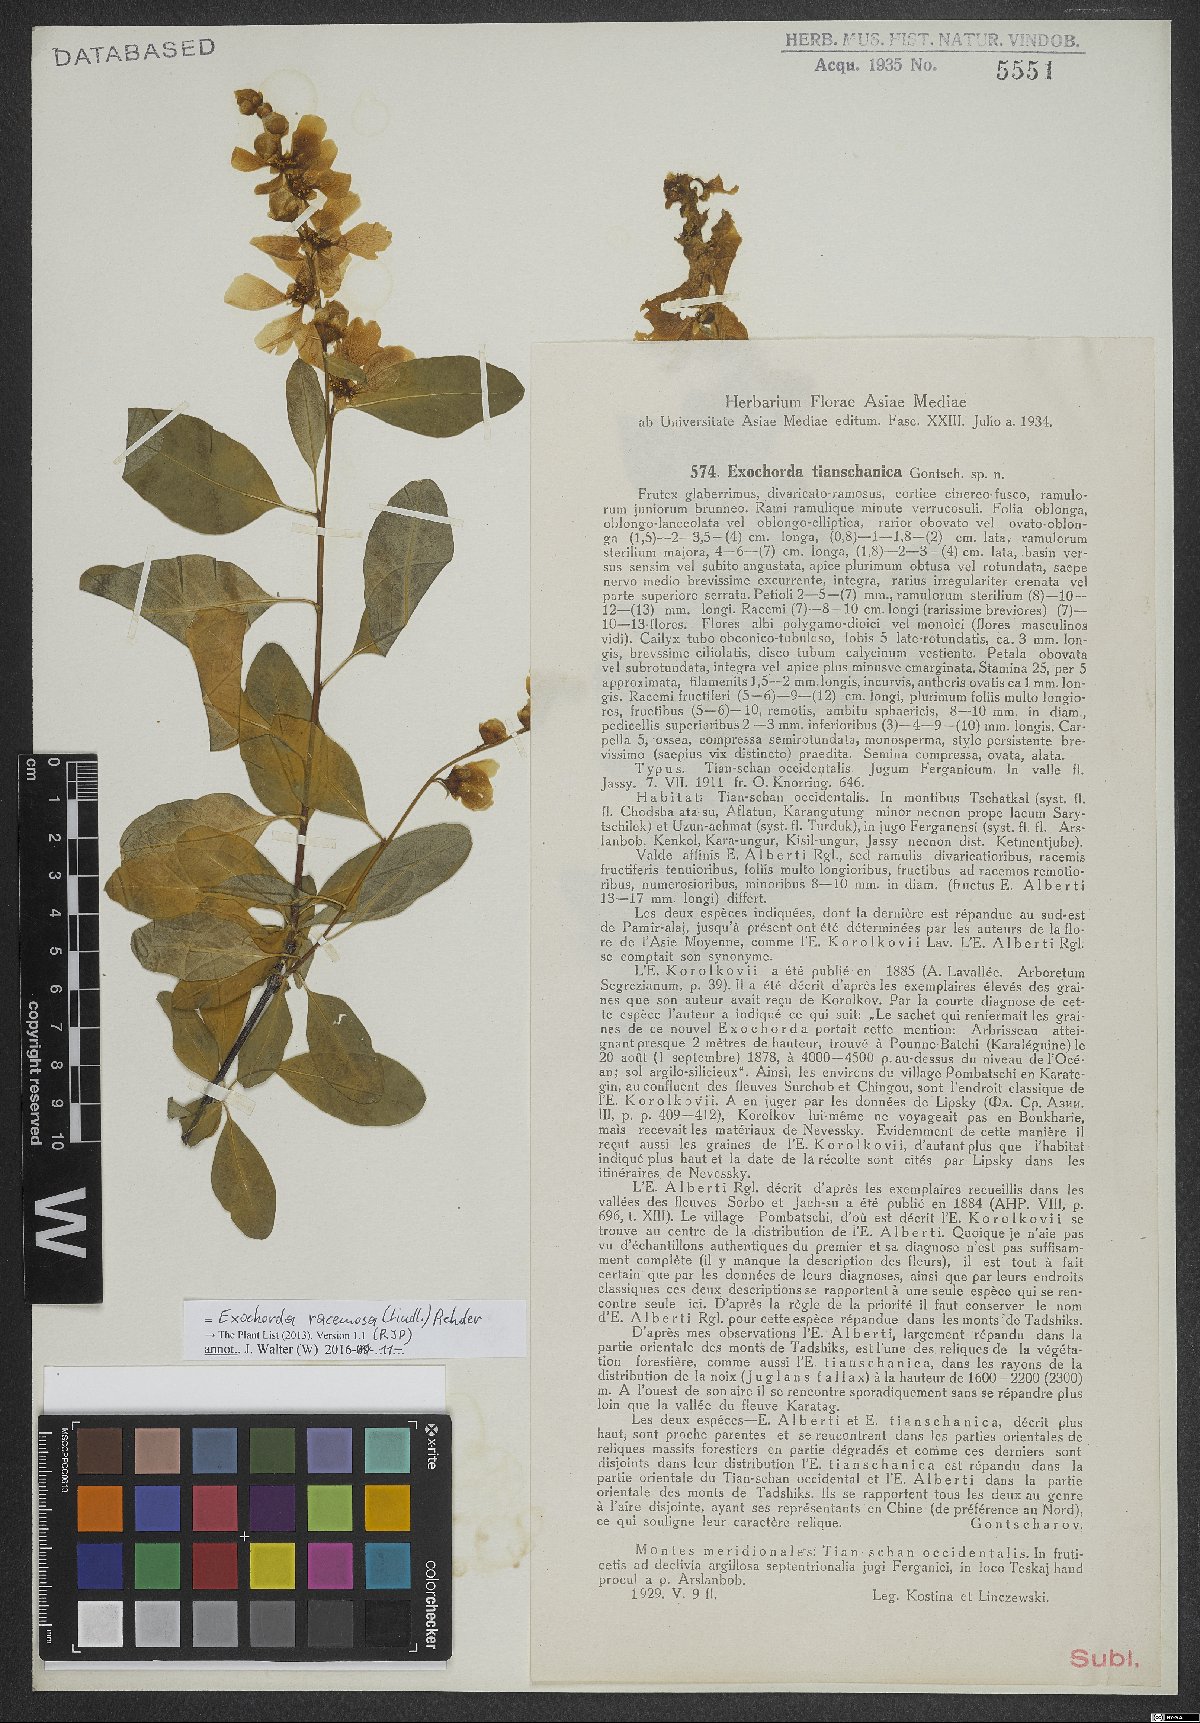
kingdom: Plantae
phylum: Tracheophyta
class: Magnoliopsida
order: Rosales
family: Rosaceae
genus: Exochorda
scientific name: Exochorda racemosa
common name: Common pearlbrush
